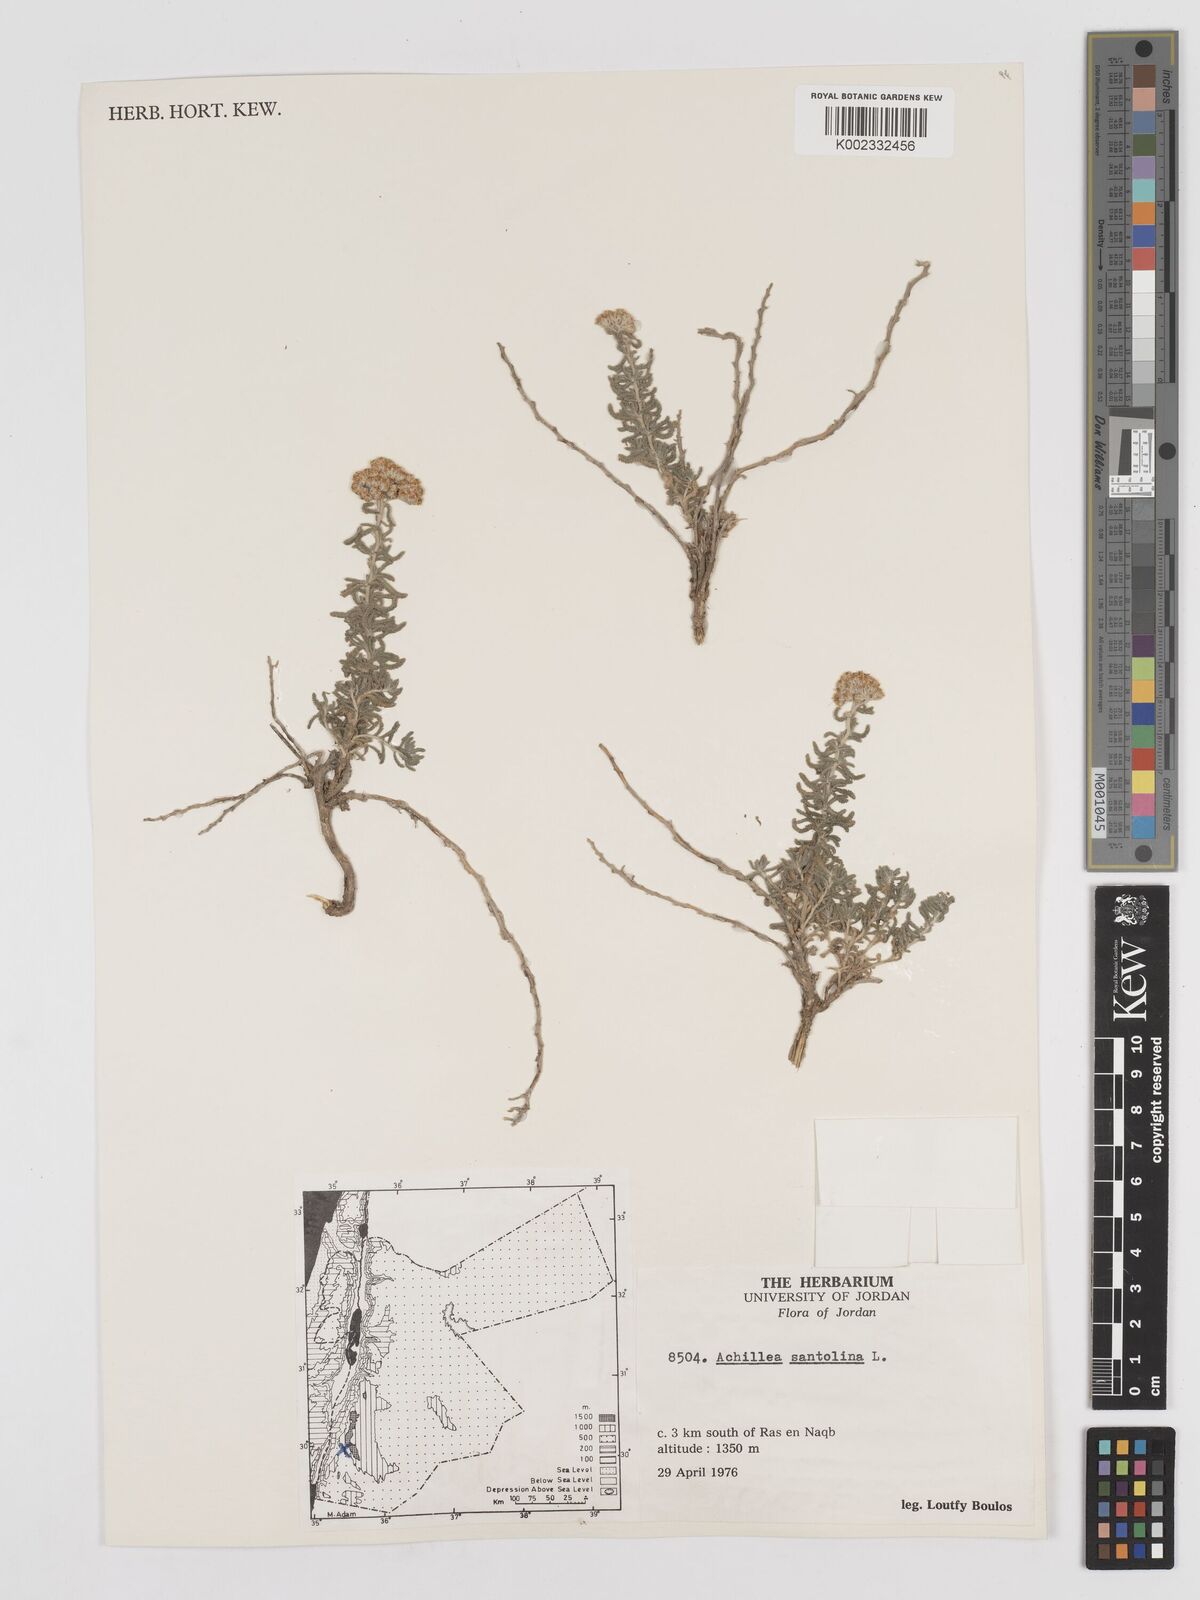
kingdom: Plantae
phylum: Tracheophyta
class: Magnoliopsida
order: Asterales
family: Asteraceae
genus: Achillea
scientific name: Achillea tenuifolia
